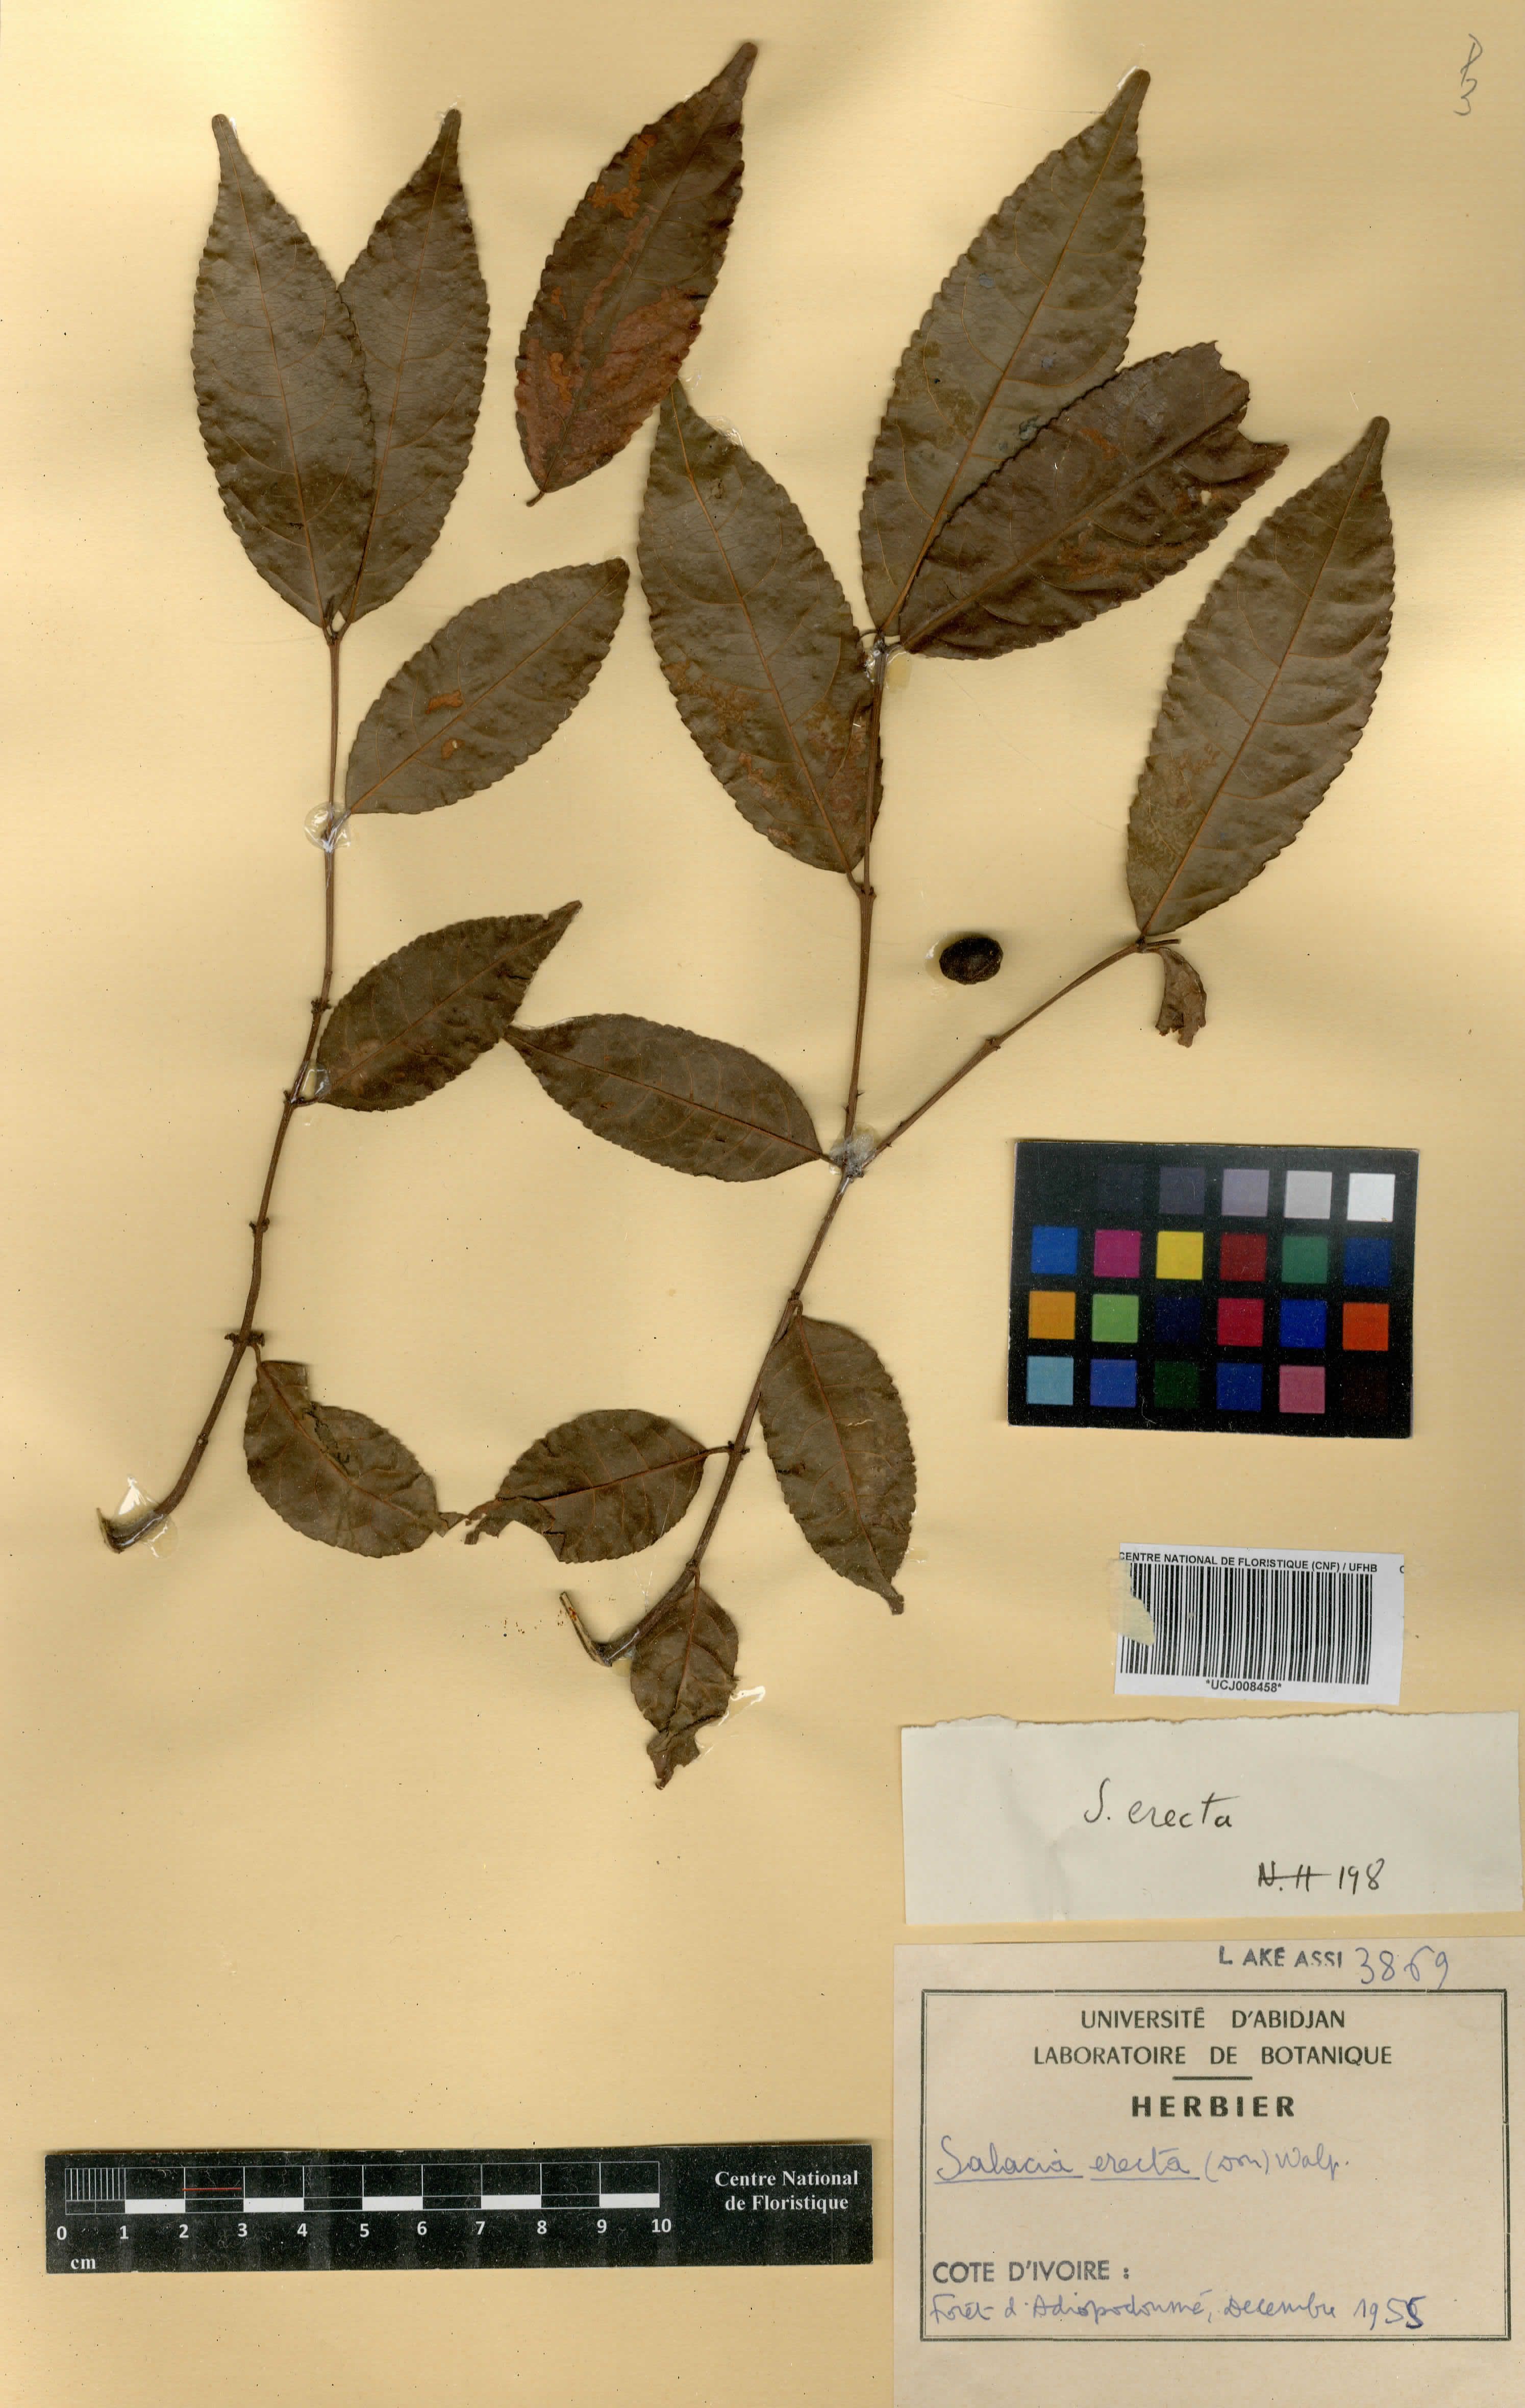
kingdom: Plantae
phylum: Tracheophyta
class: Magnoliopsida
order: Celastrales
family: Celastraceae
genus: Salacia
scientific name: Salacia elegans
